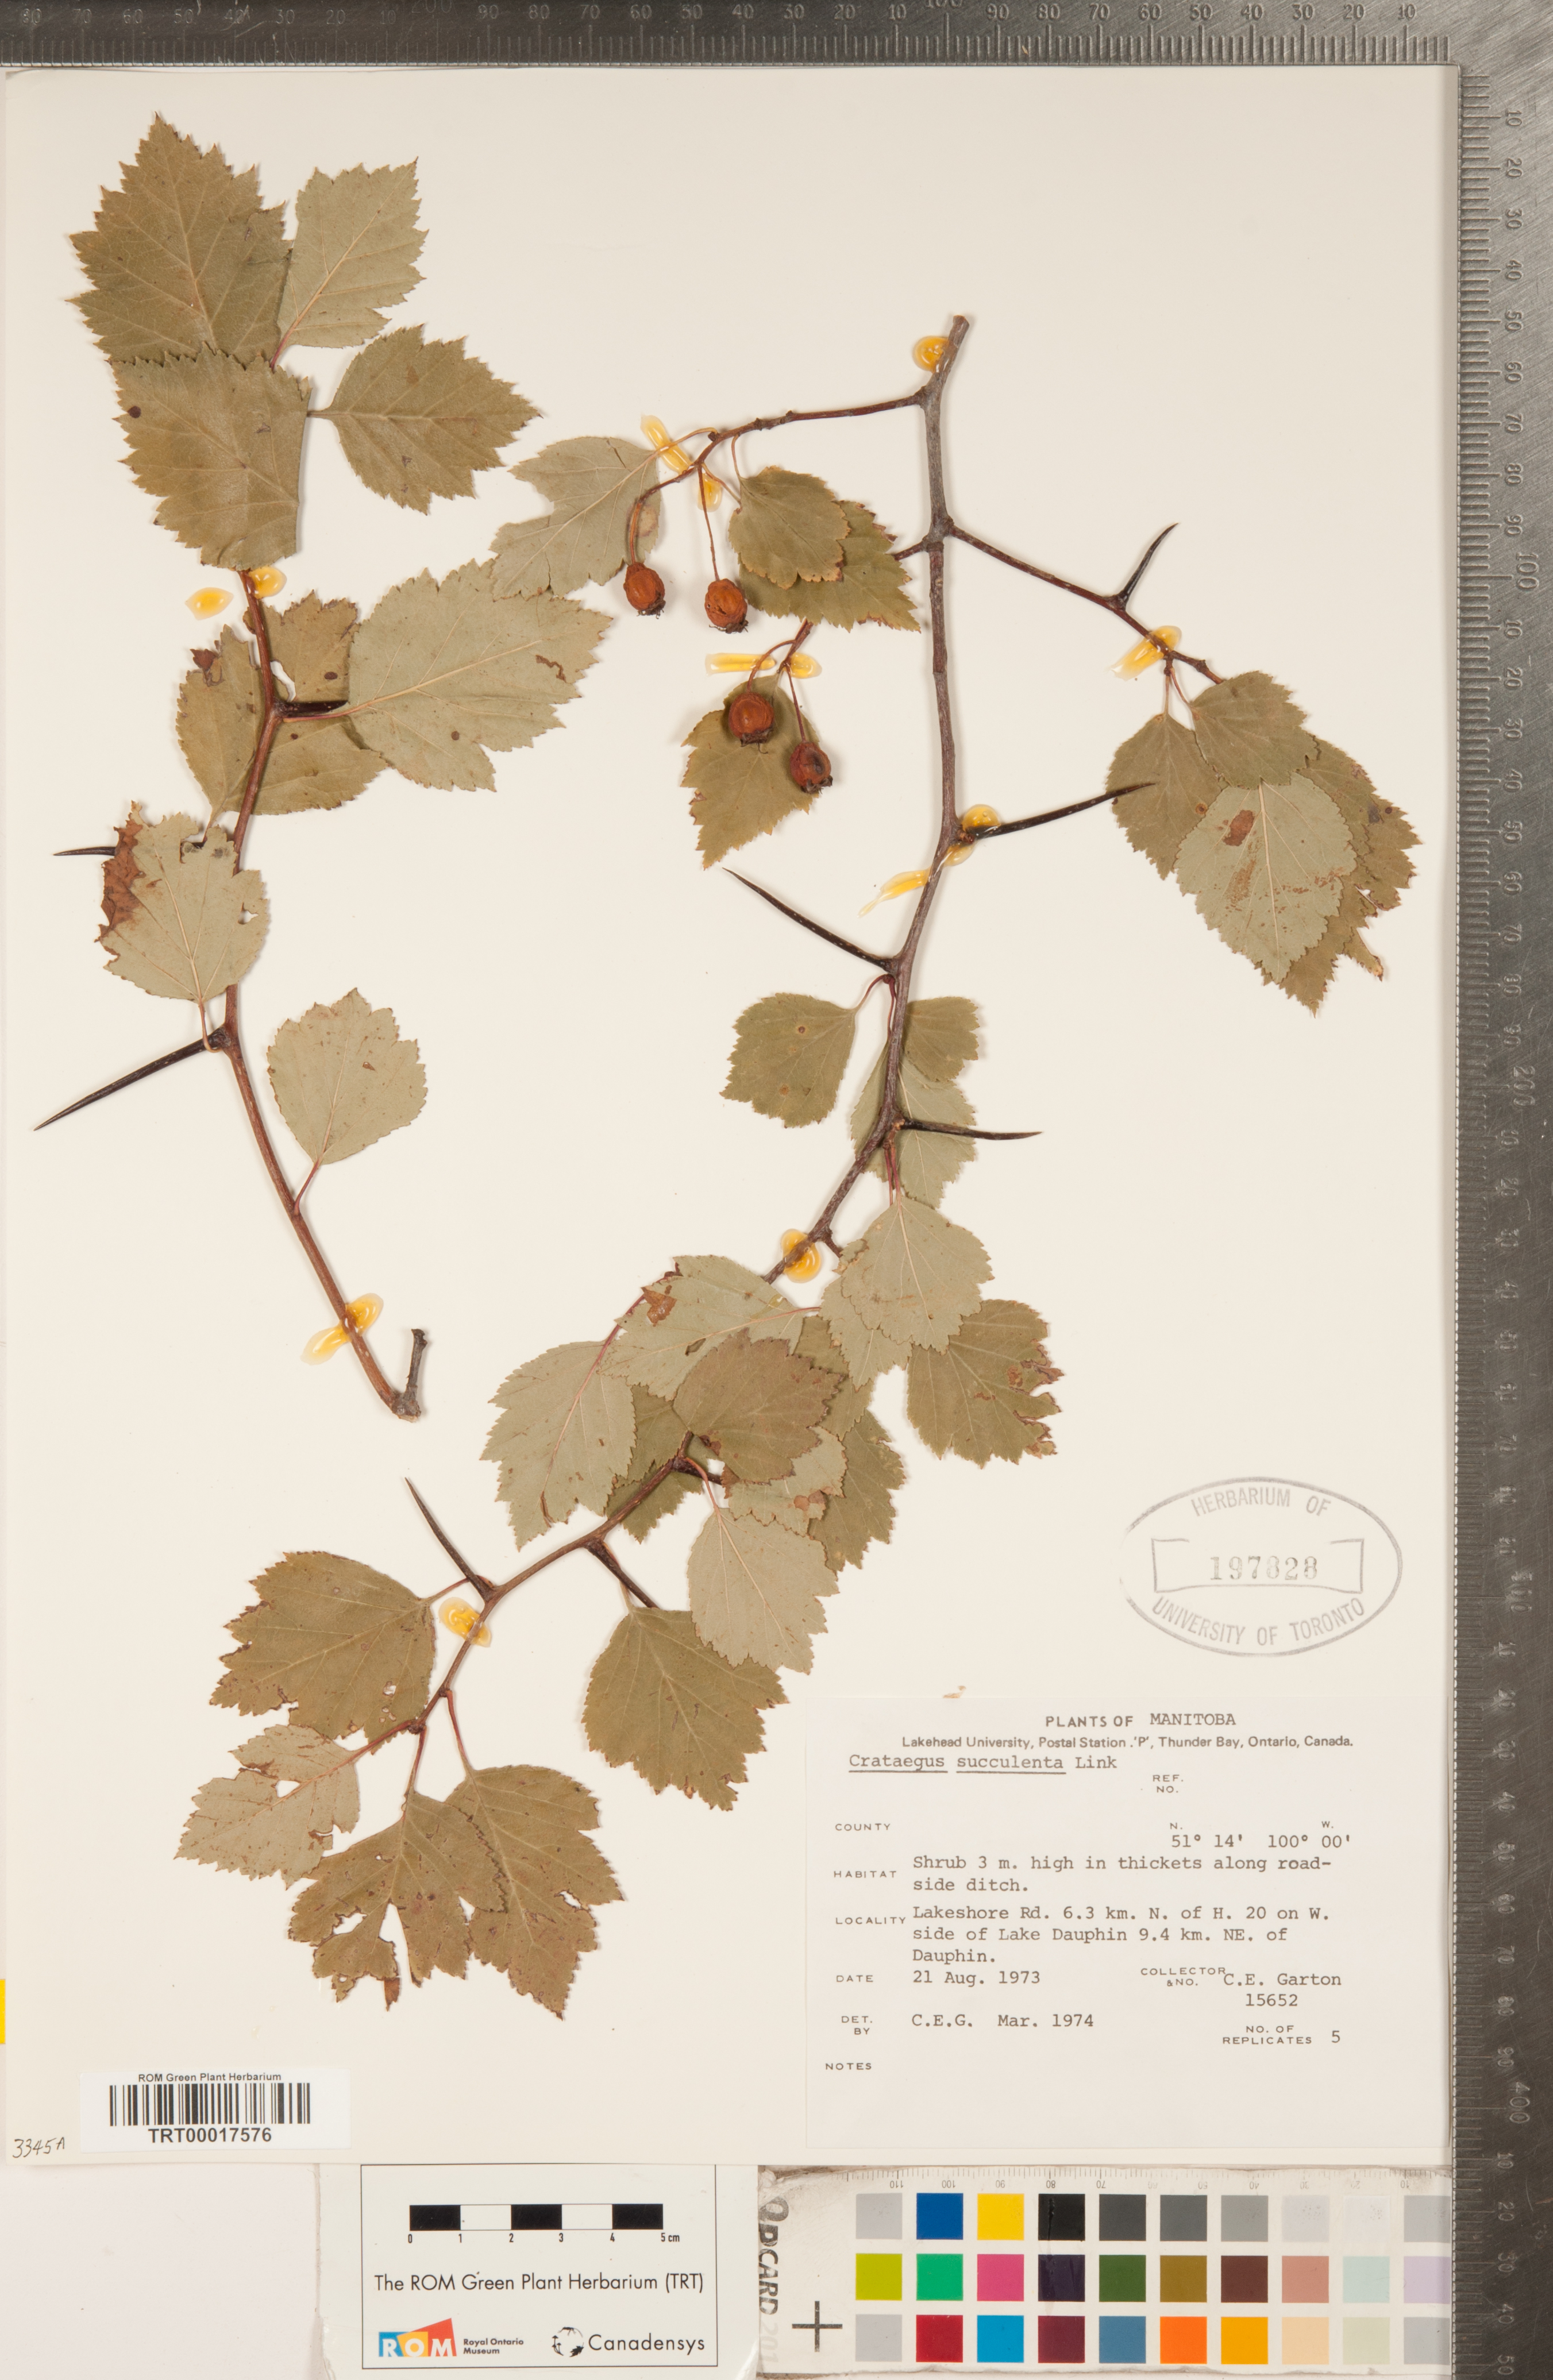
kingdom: Plantae
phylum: Tracheophyta
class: Magnoliopsida
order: Rosales
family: Rosaceae
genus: Crataegus
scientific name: Crataegus succulenta
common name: Fleshy hawthorn
